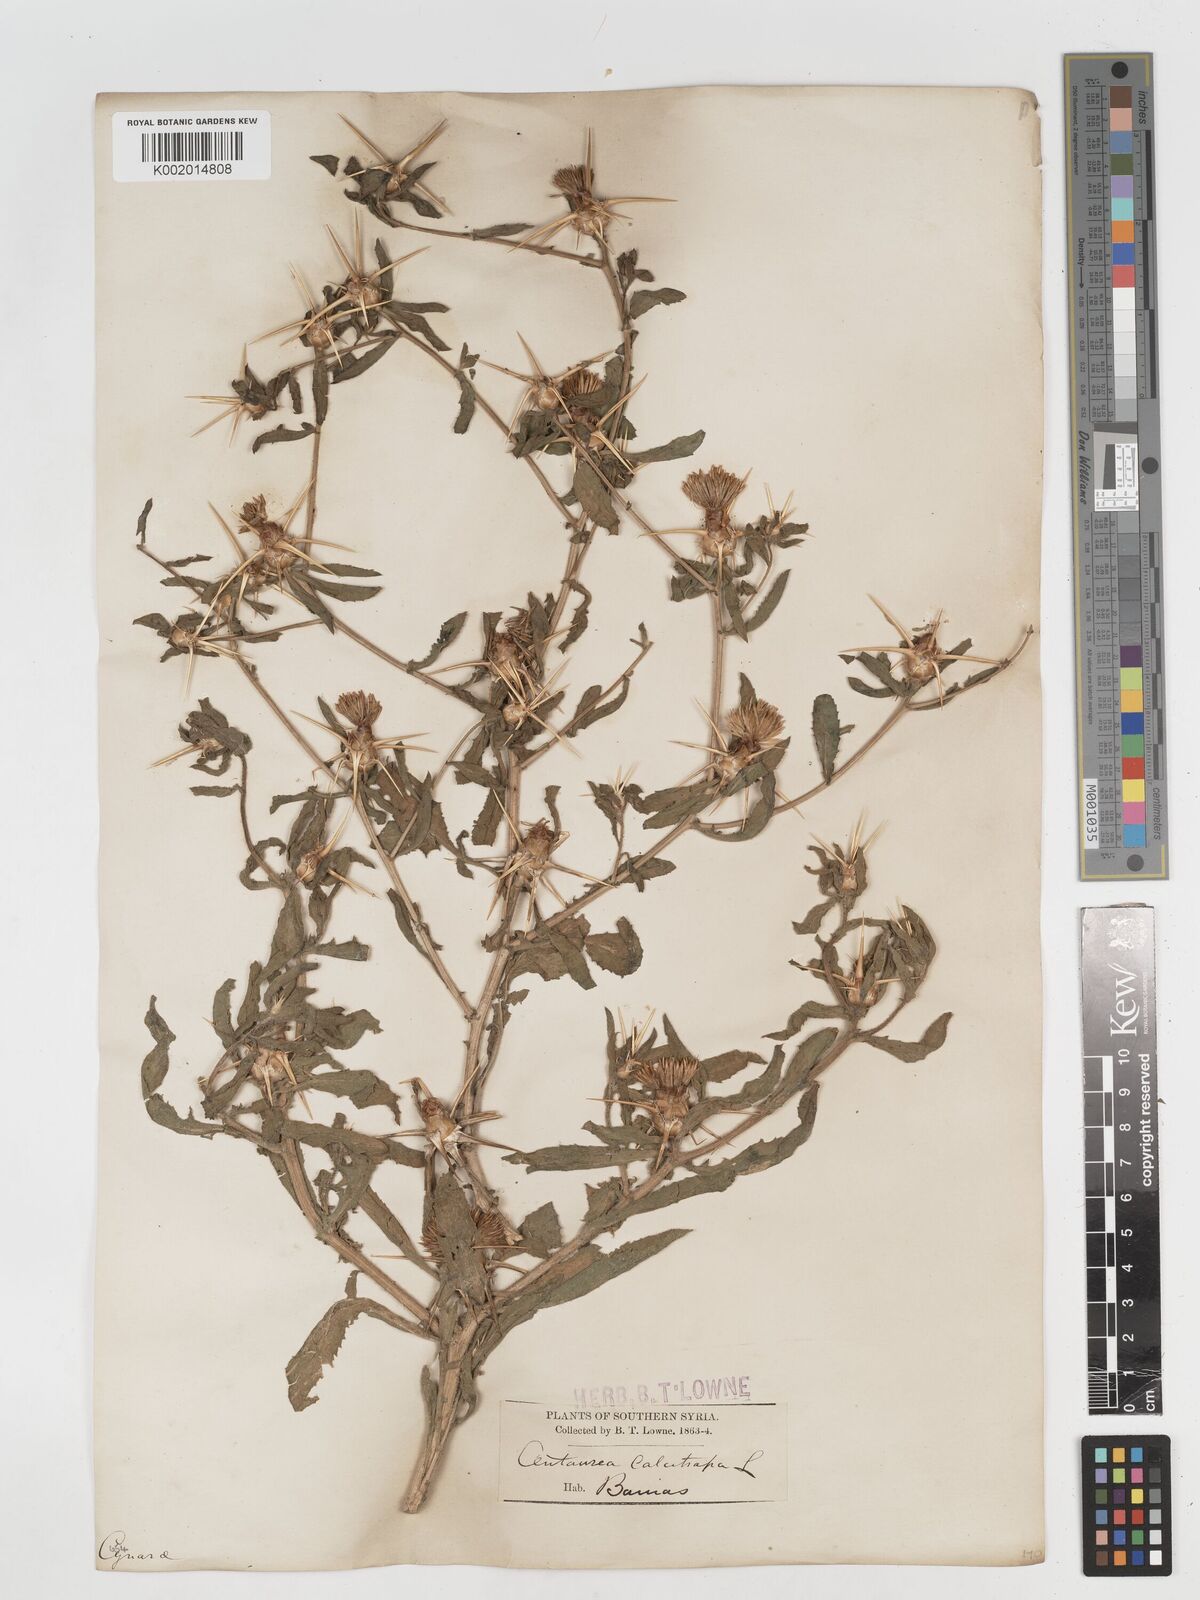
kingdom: Plantae
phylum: Tracheophyta
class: Magnoliopsida
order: Asterales
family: Asteraceae
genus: Centaurea
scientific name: Centaurea iberica
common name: Iberian knapweed
